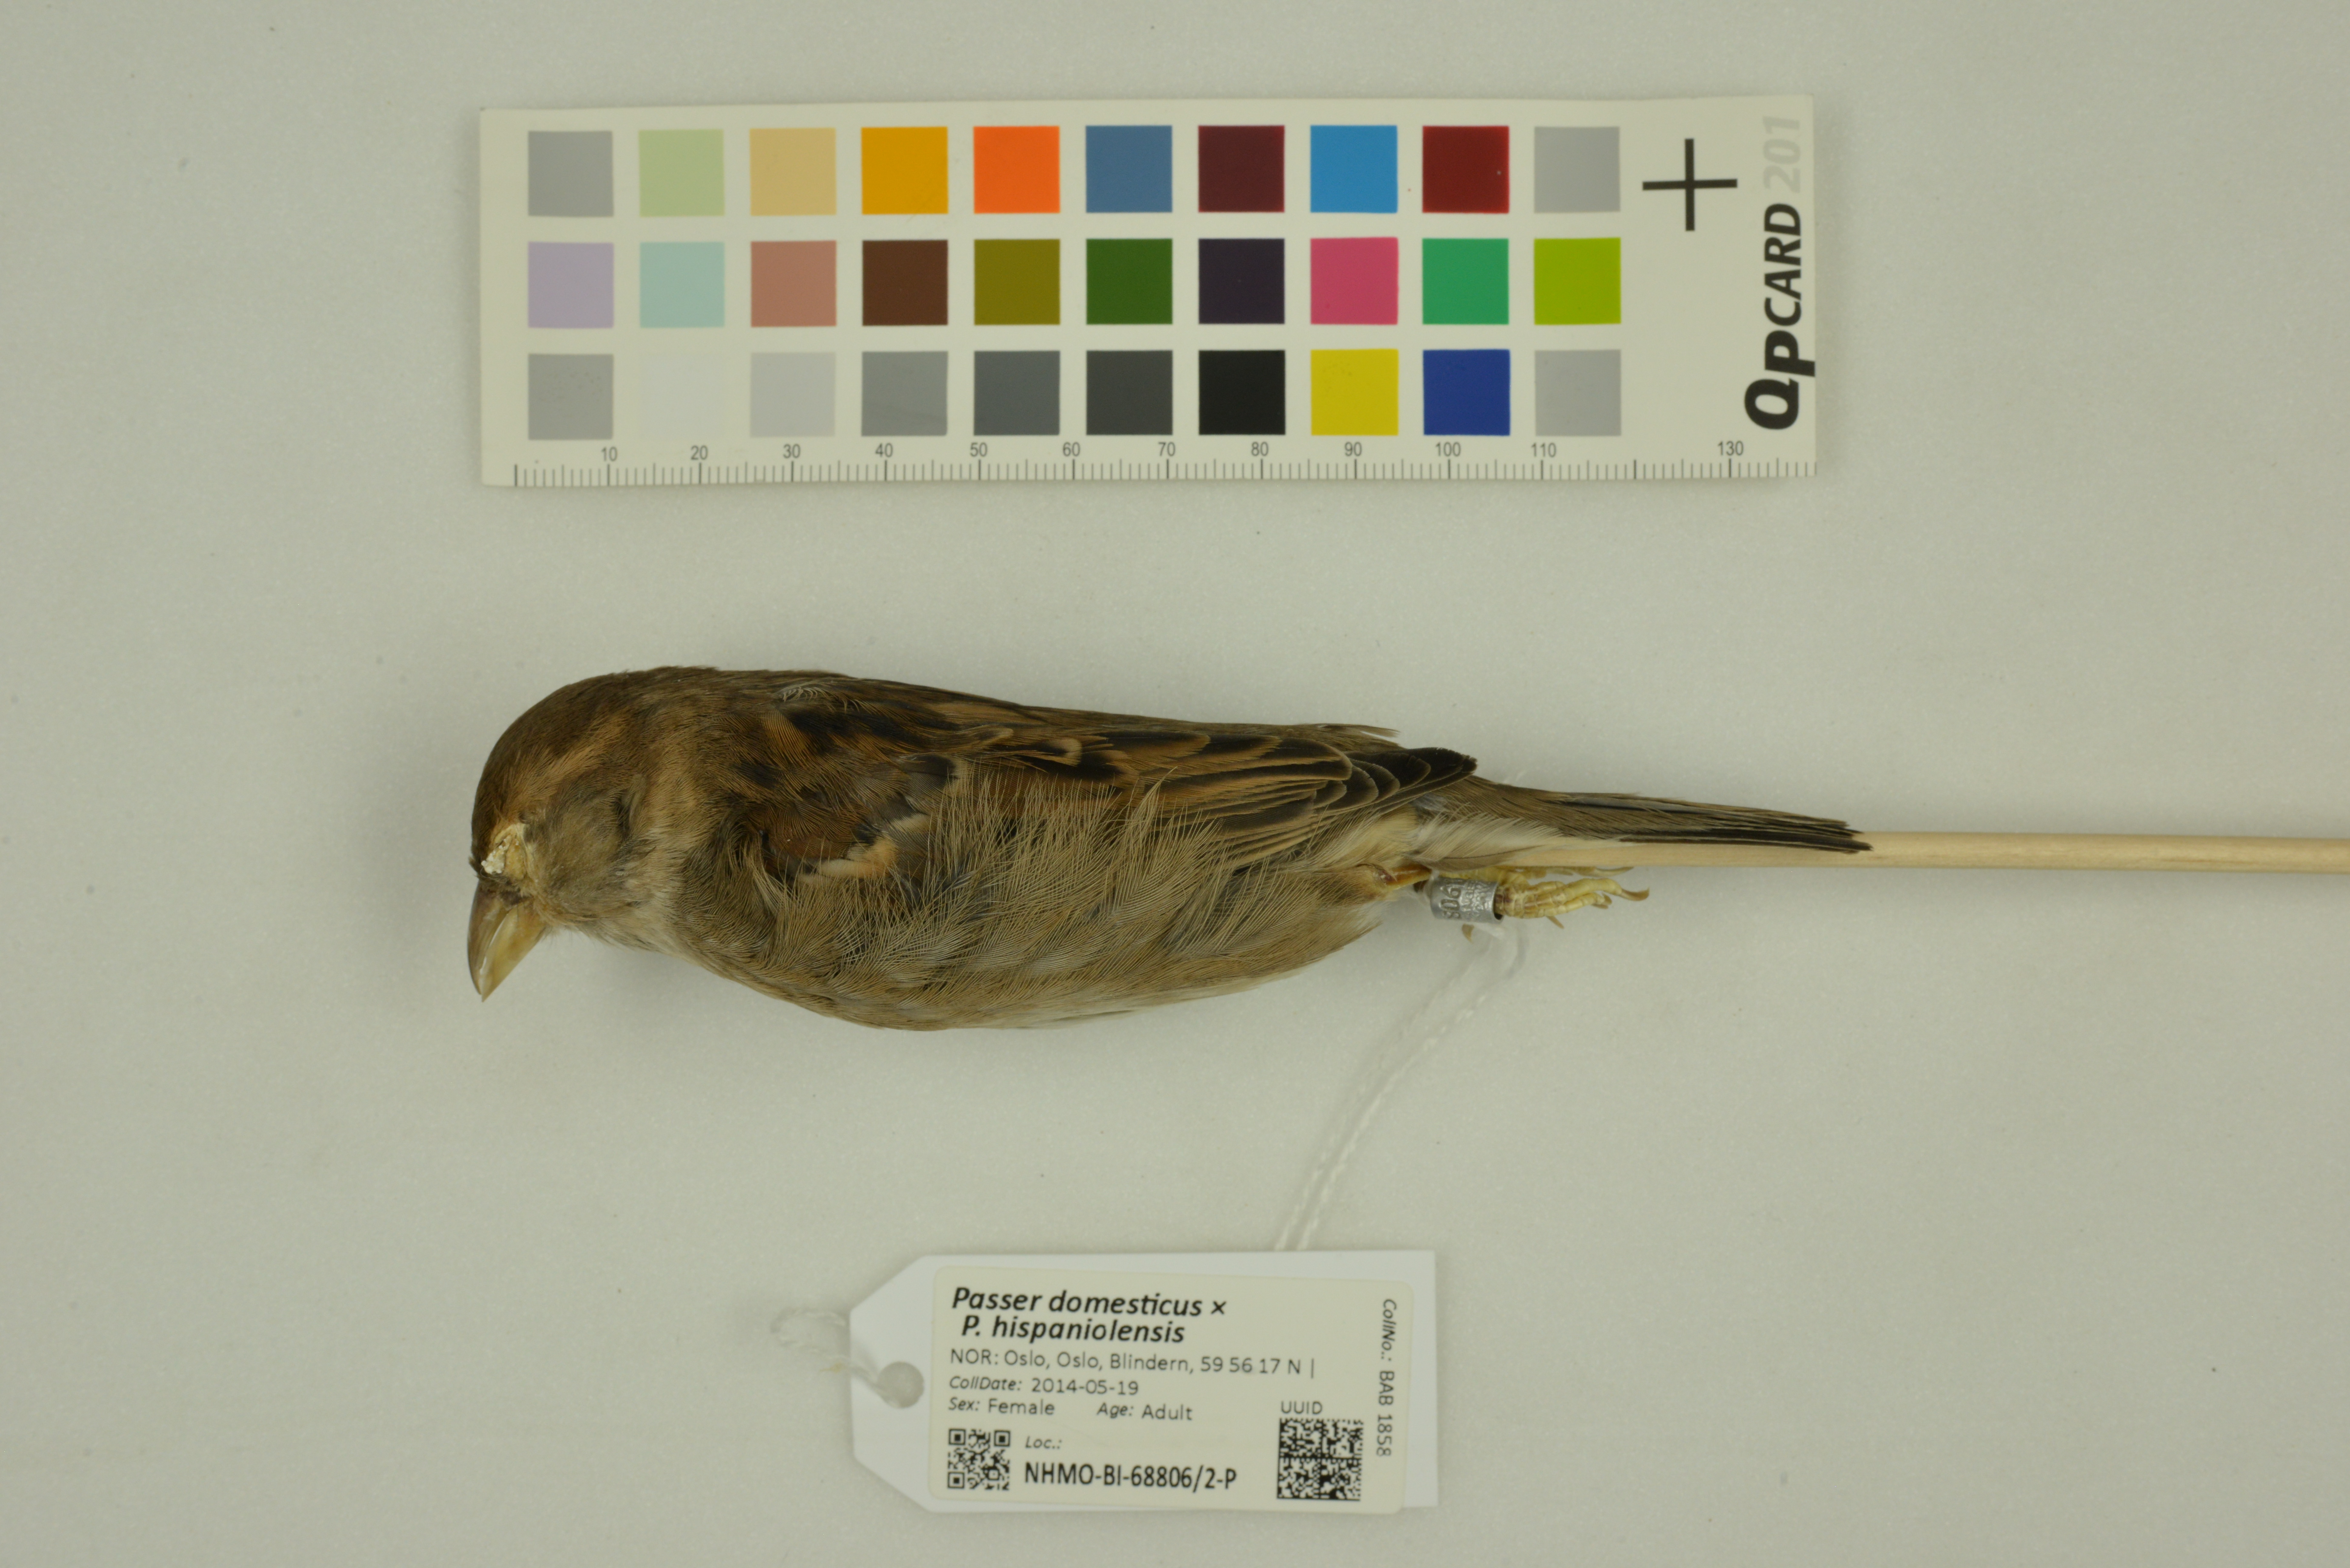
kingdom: Animalia
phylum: Chordata
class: Aves
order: Passeriformes
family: Passeridae
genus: Passer
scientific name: Passer
